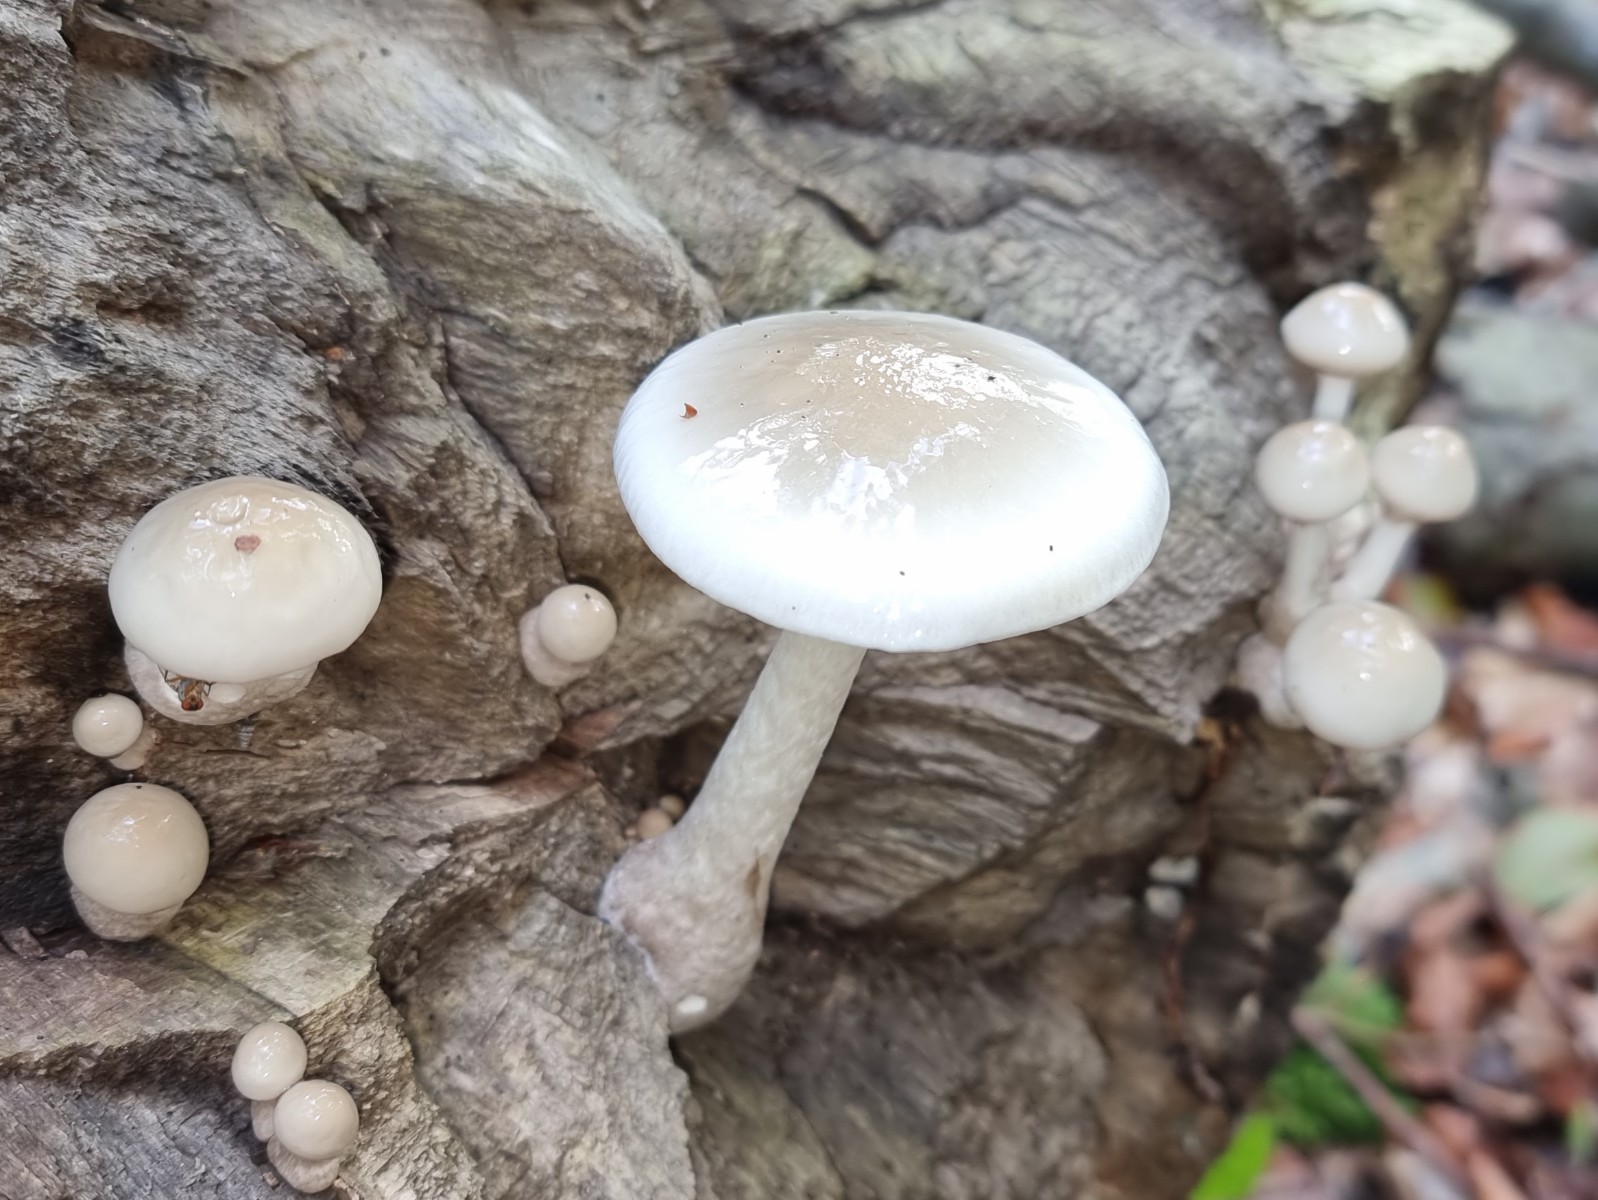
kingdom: Fungi
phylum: Basidiomycota
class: Agaricomycetes
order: Agaricales
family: Physalacriaceae
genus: Mucidula
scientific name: Mucidula mucida
